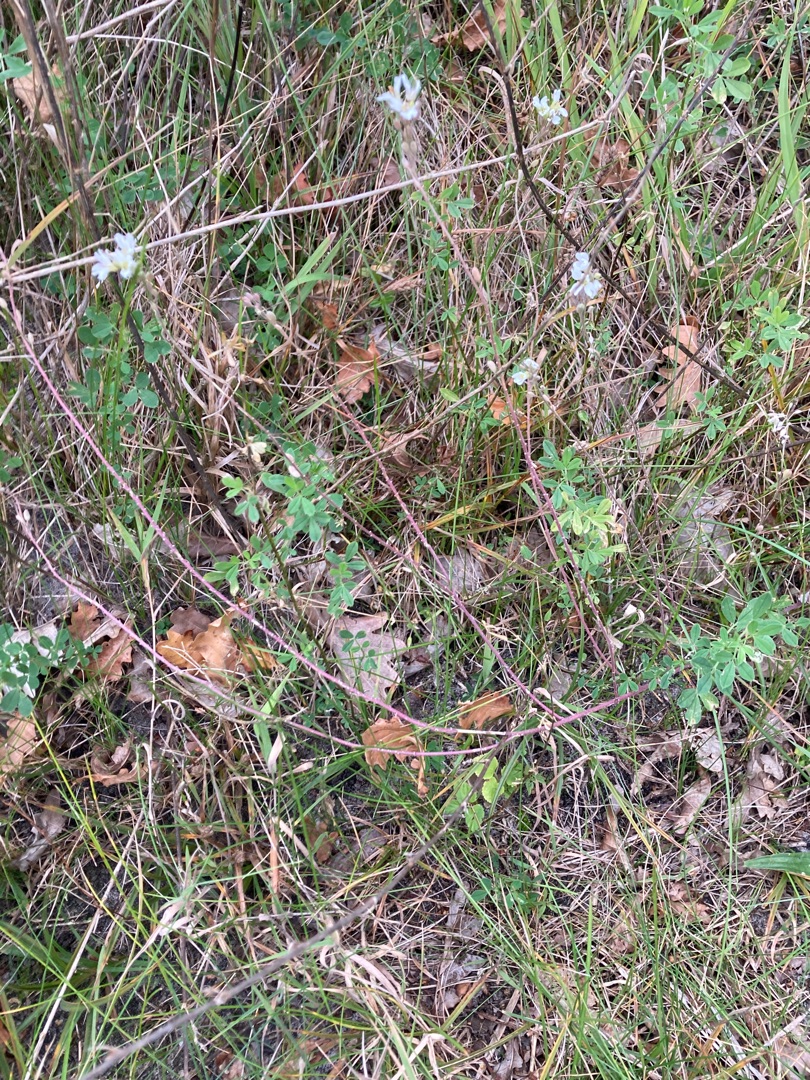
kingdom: Plantae
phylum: Tracheophyta
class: Magnoliopsida
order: Brassicales
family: Brassicaceae
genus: Berteroa
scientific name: Berteroa incana
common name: Kløvplade
